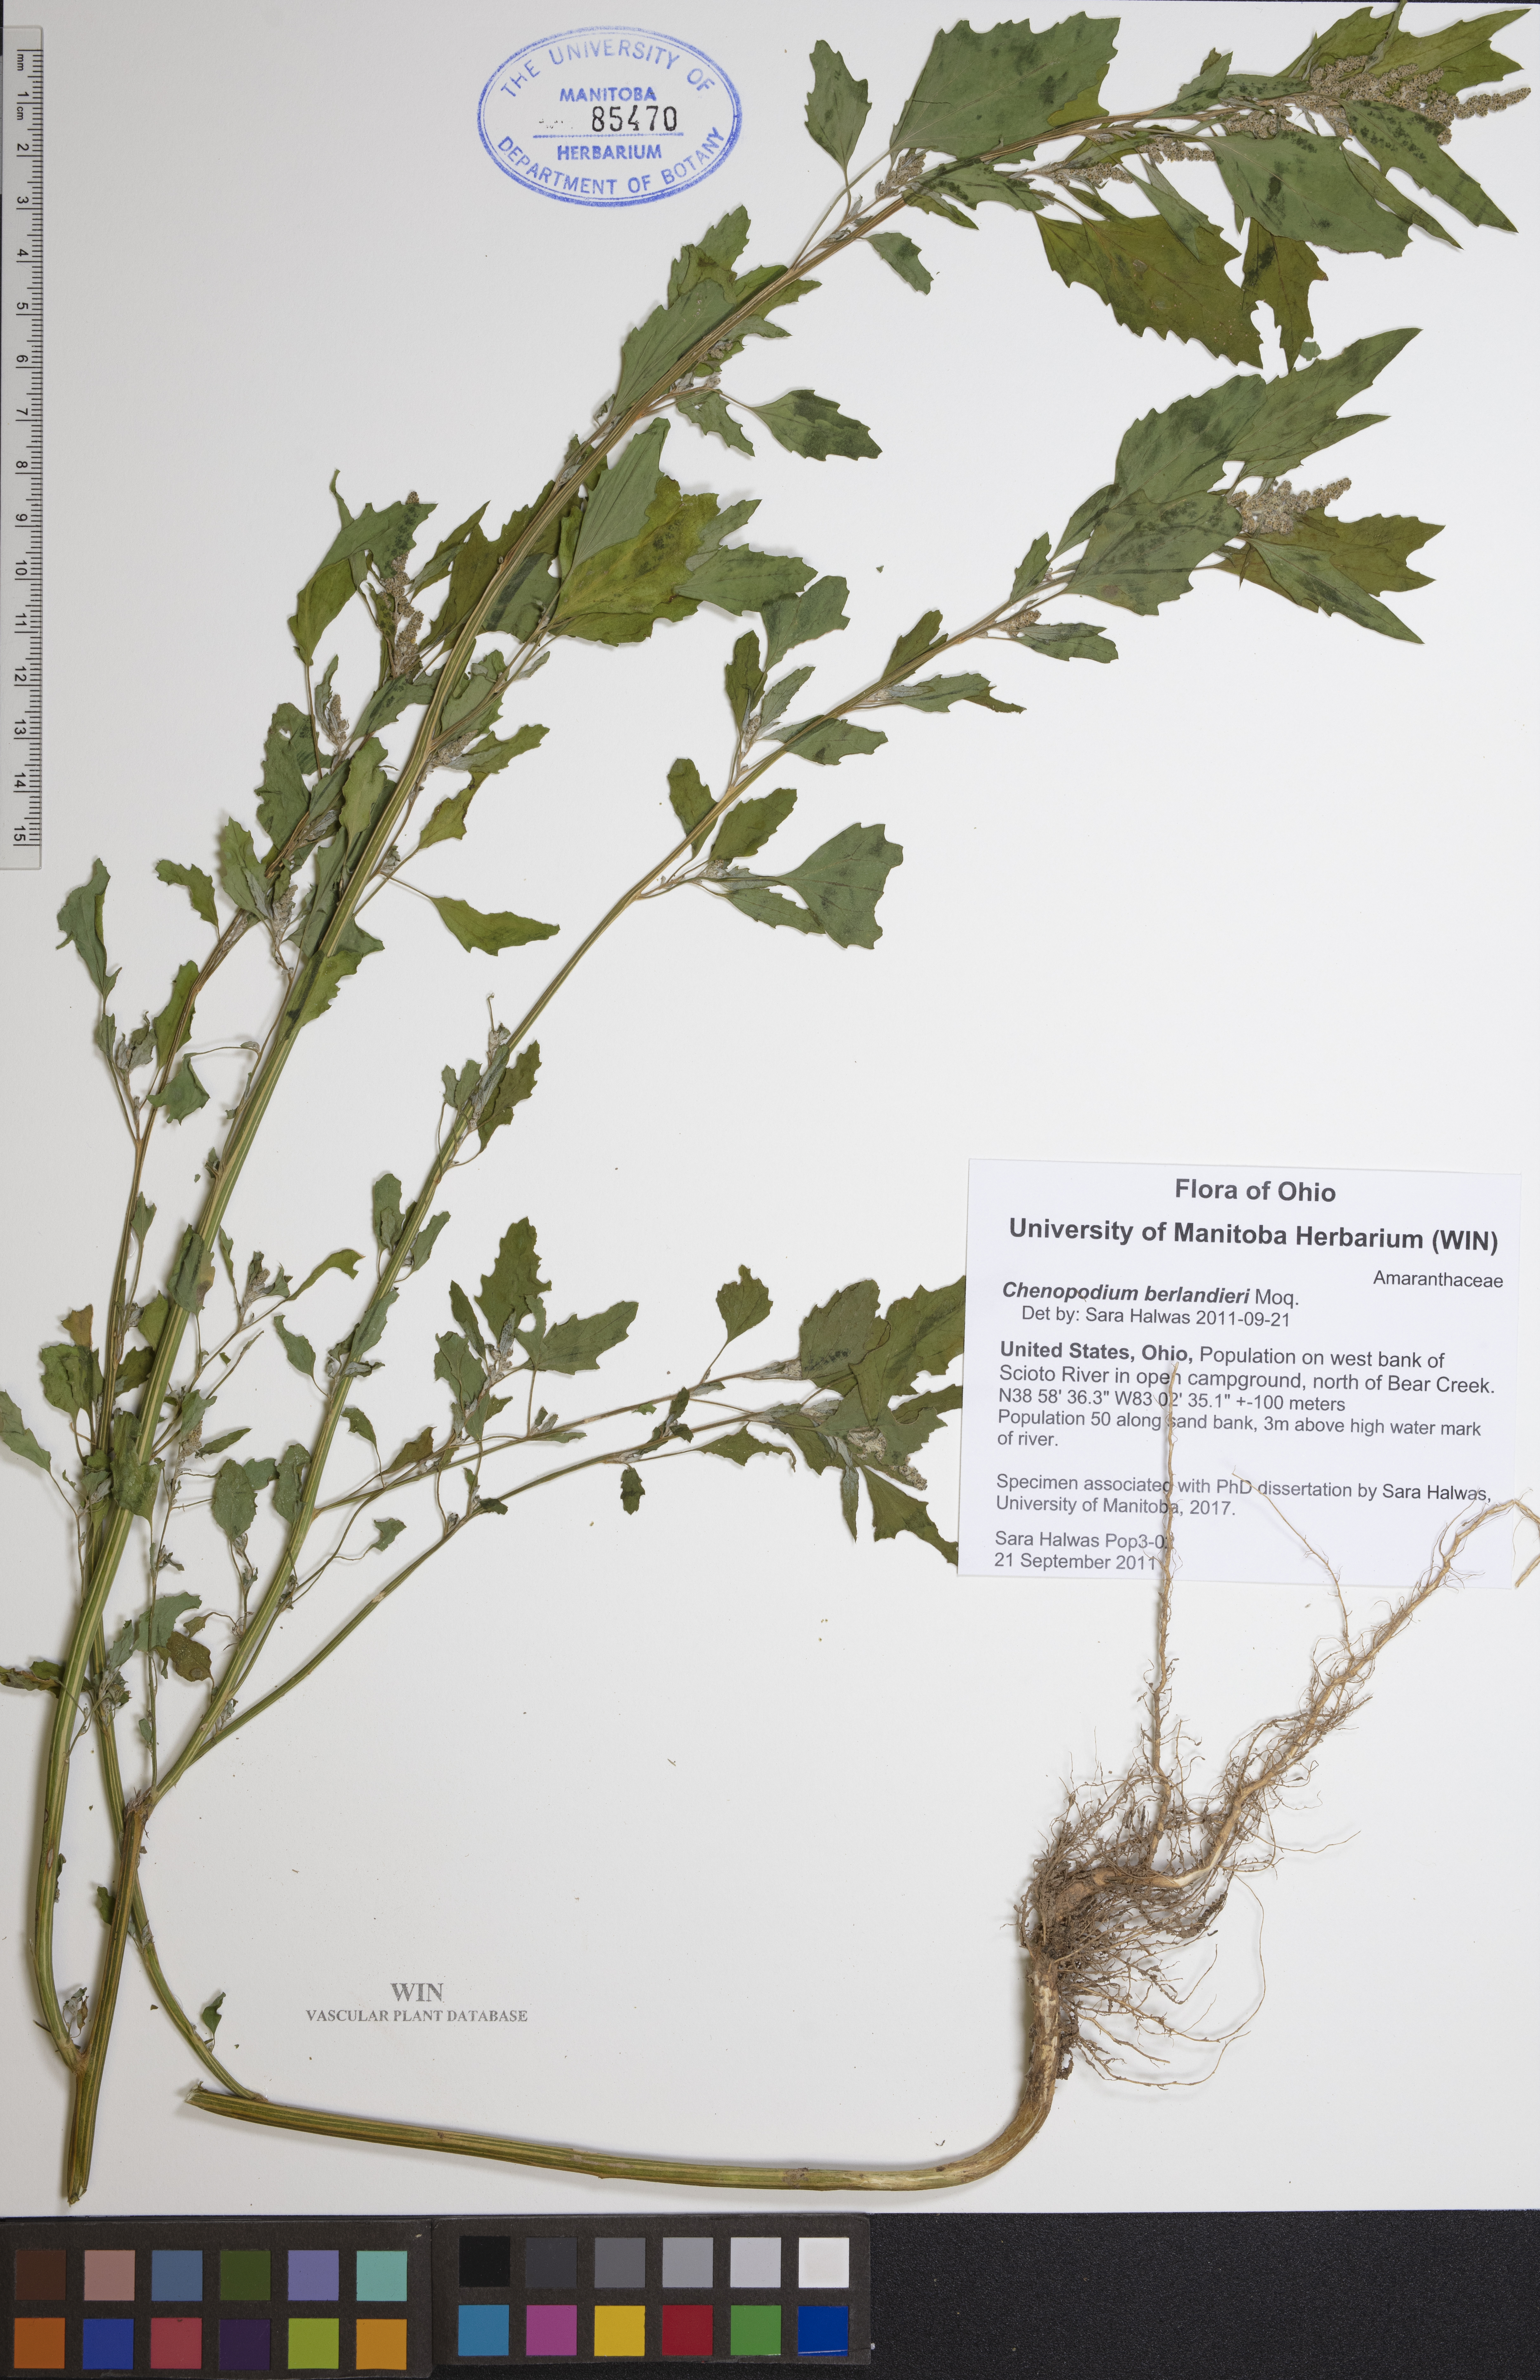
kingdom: Plantae
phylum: Tracheophyta
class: Magnoliopsida
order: Caryophyllales
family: Amaranthaceae
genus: Chenopodium
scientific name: Chenopodium berlandieri
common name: Pit-seed goosefoot
